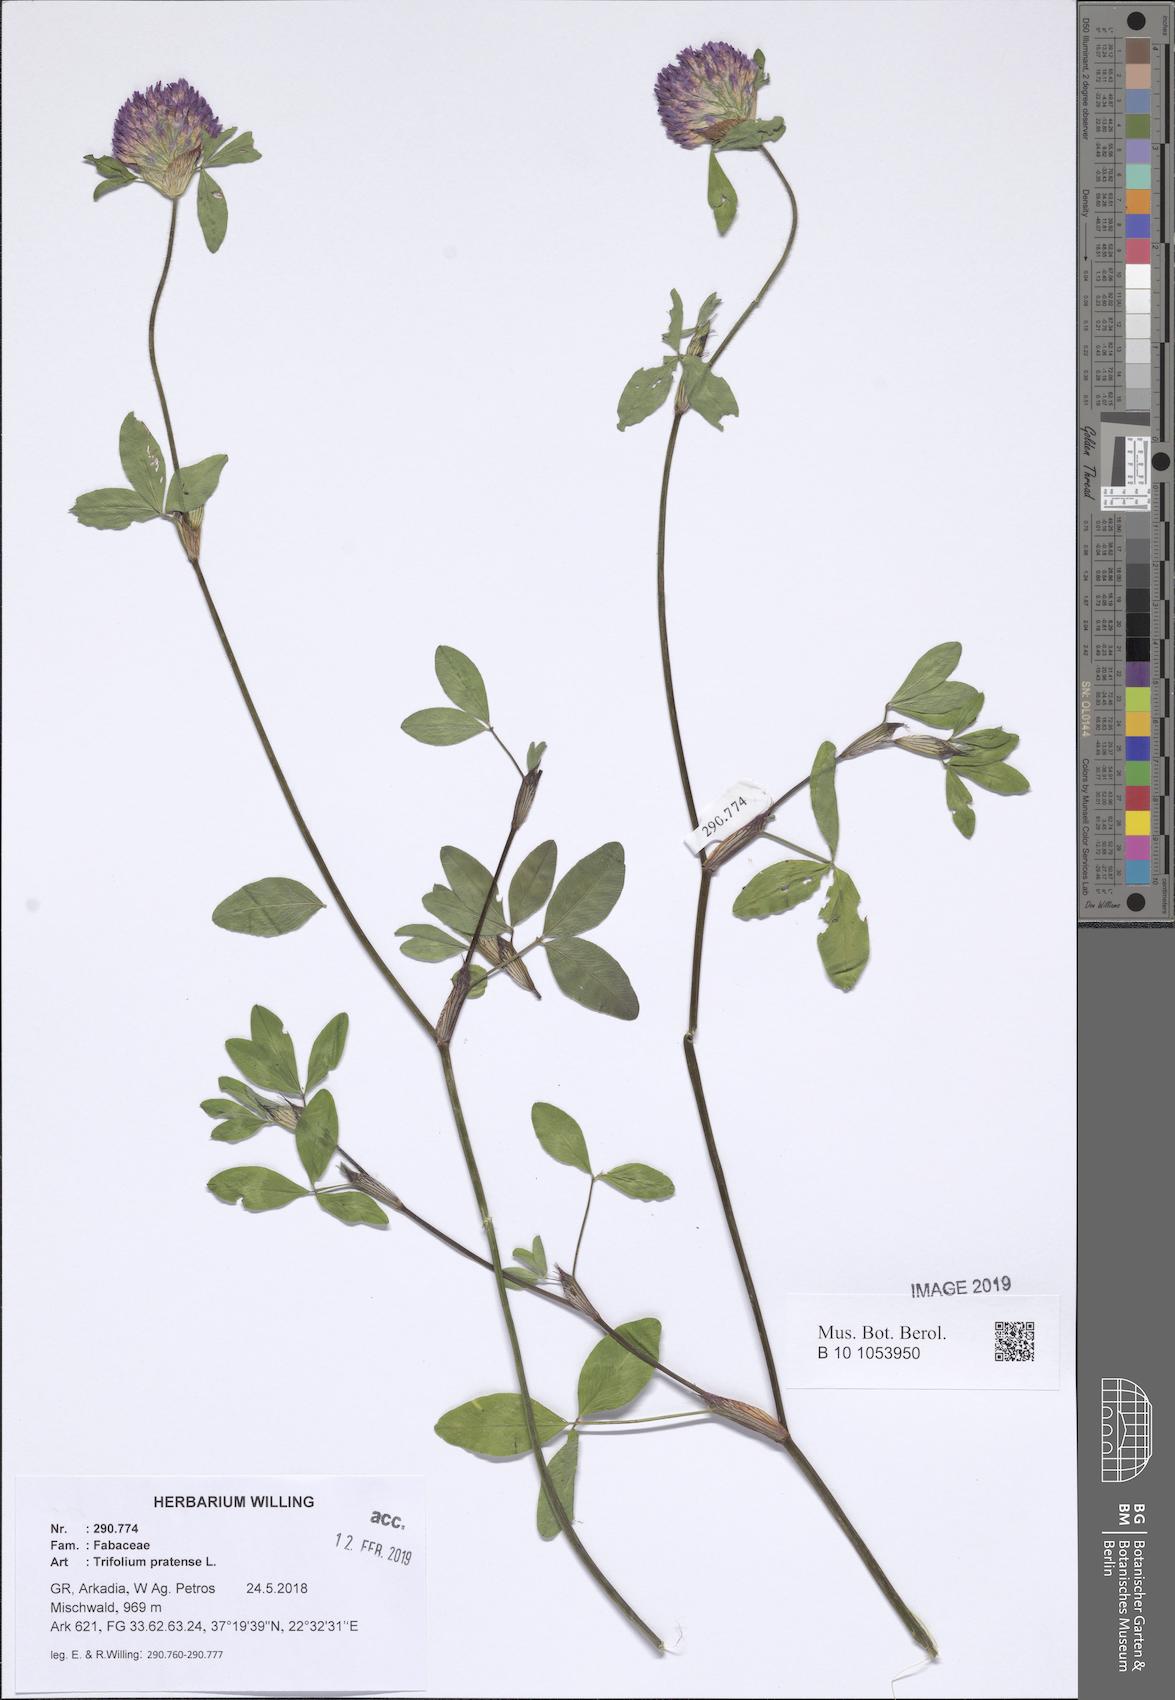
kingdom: Plantae
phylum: Tracheophyta
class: Magnoliopsida
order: Fabales
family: Fabaceae
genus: Trifolium
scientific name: Trifolium pratense
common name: Red clover
